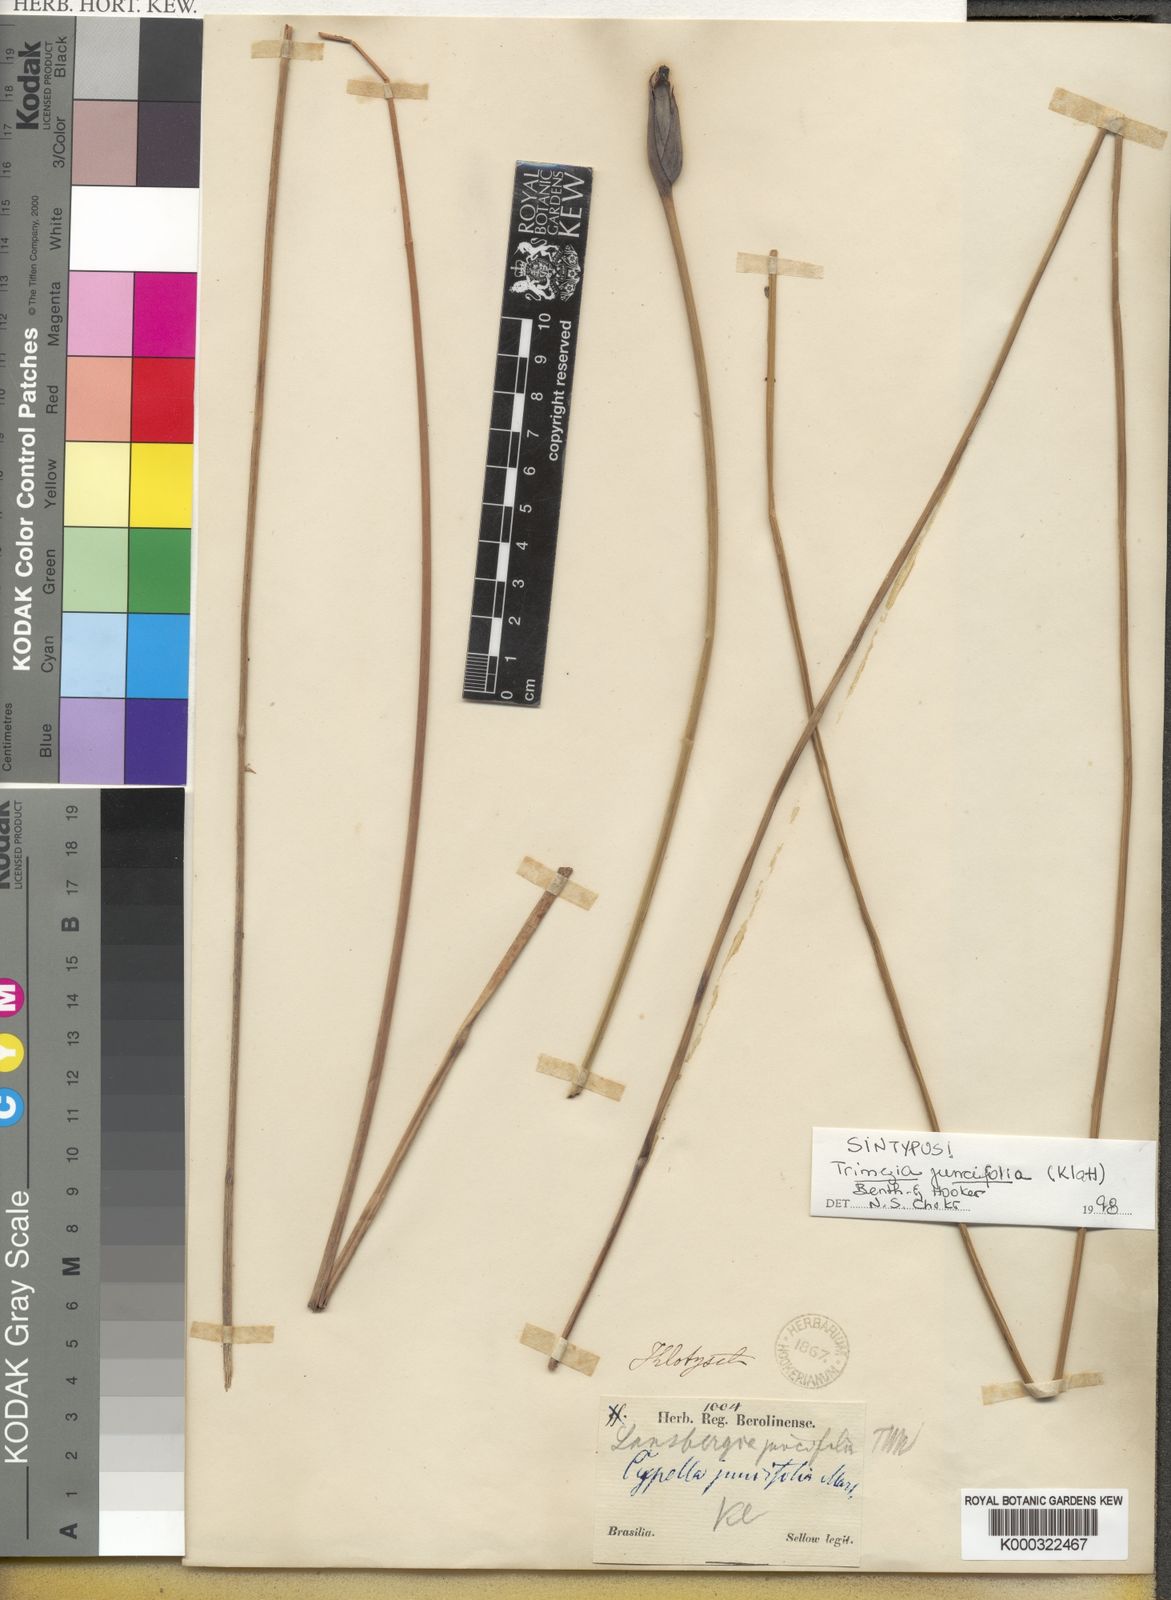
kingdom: Plantae
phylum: Tracheophyta
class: Liliopsida
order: Asparagales
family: Iridaceae
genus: Trimezia
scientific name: Trimezia juncifolia
